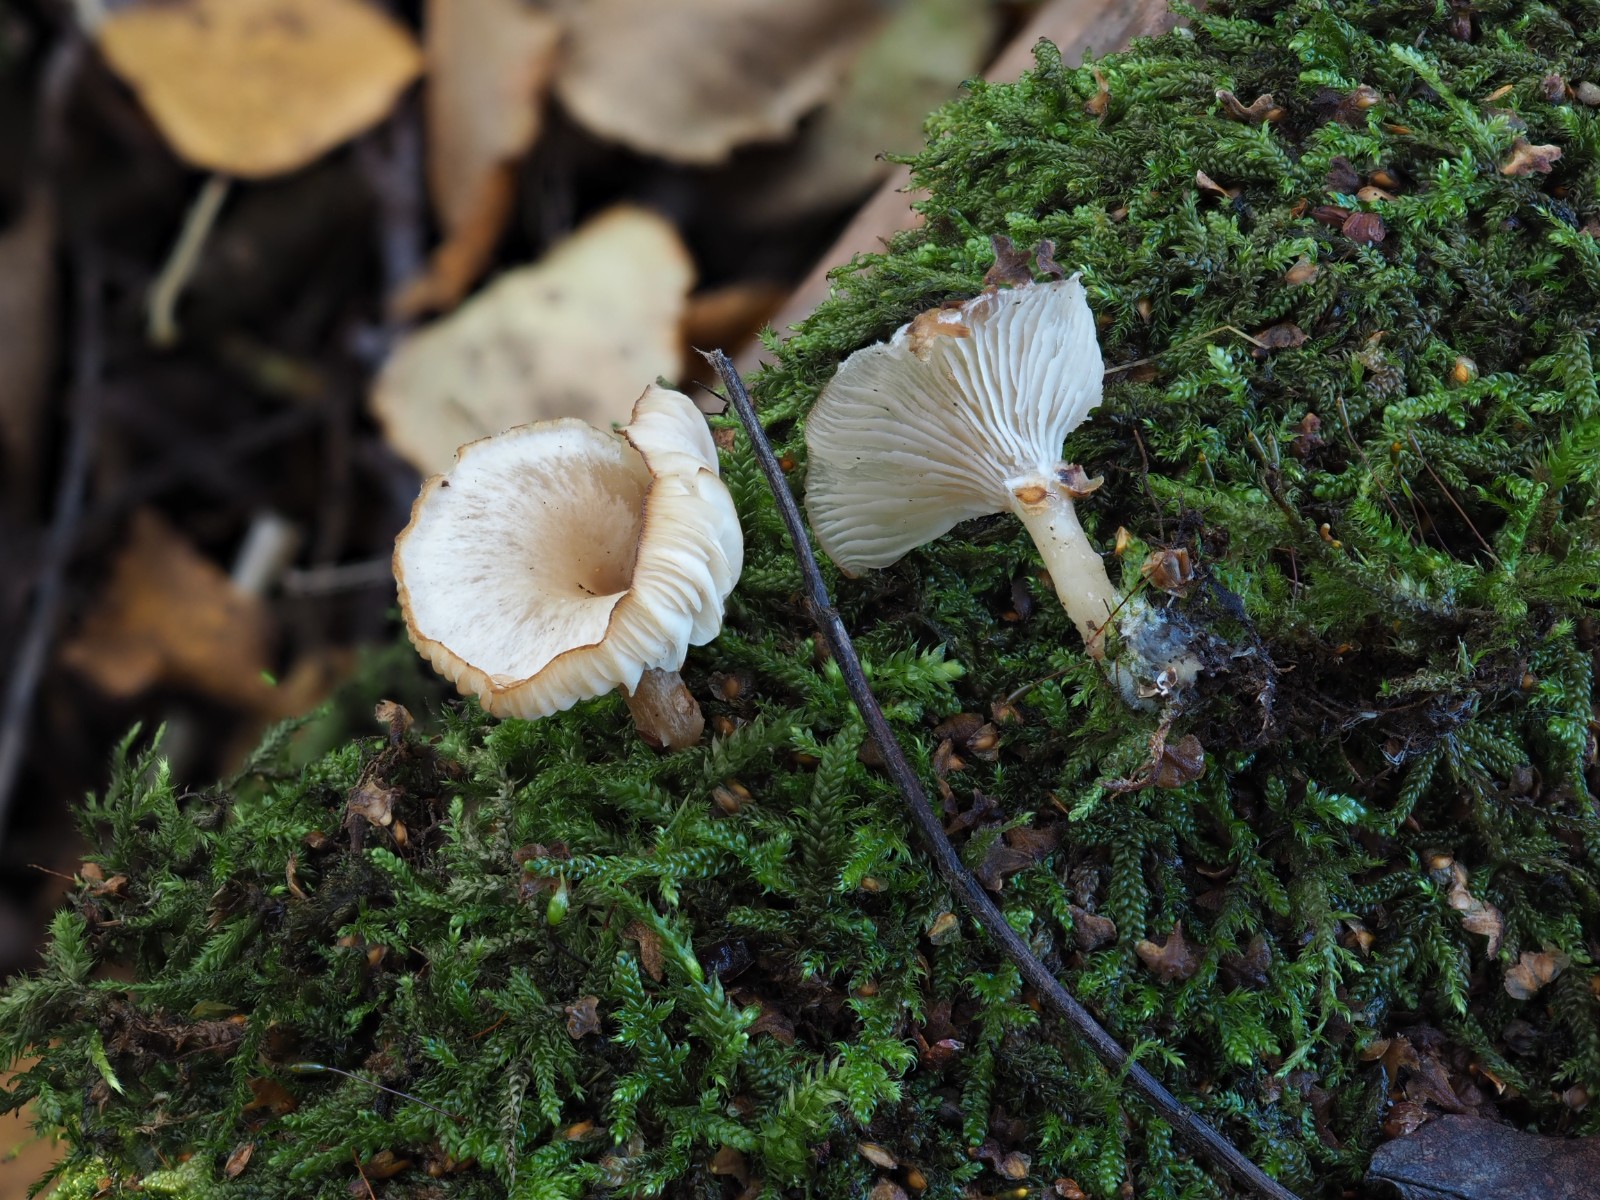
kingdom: Fungi
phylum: Basidiomycota
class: Agaricomycetes
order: Agaricales
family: Tricholomataceae
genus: Clitocybe
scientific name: Clitocybe fragrans
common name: vellugtende tragthat
